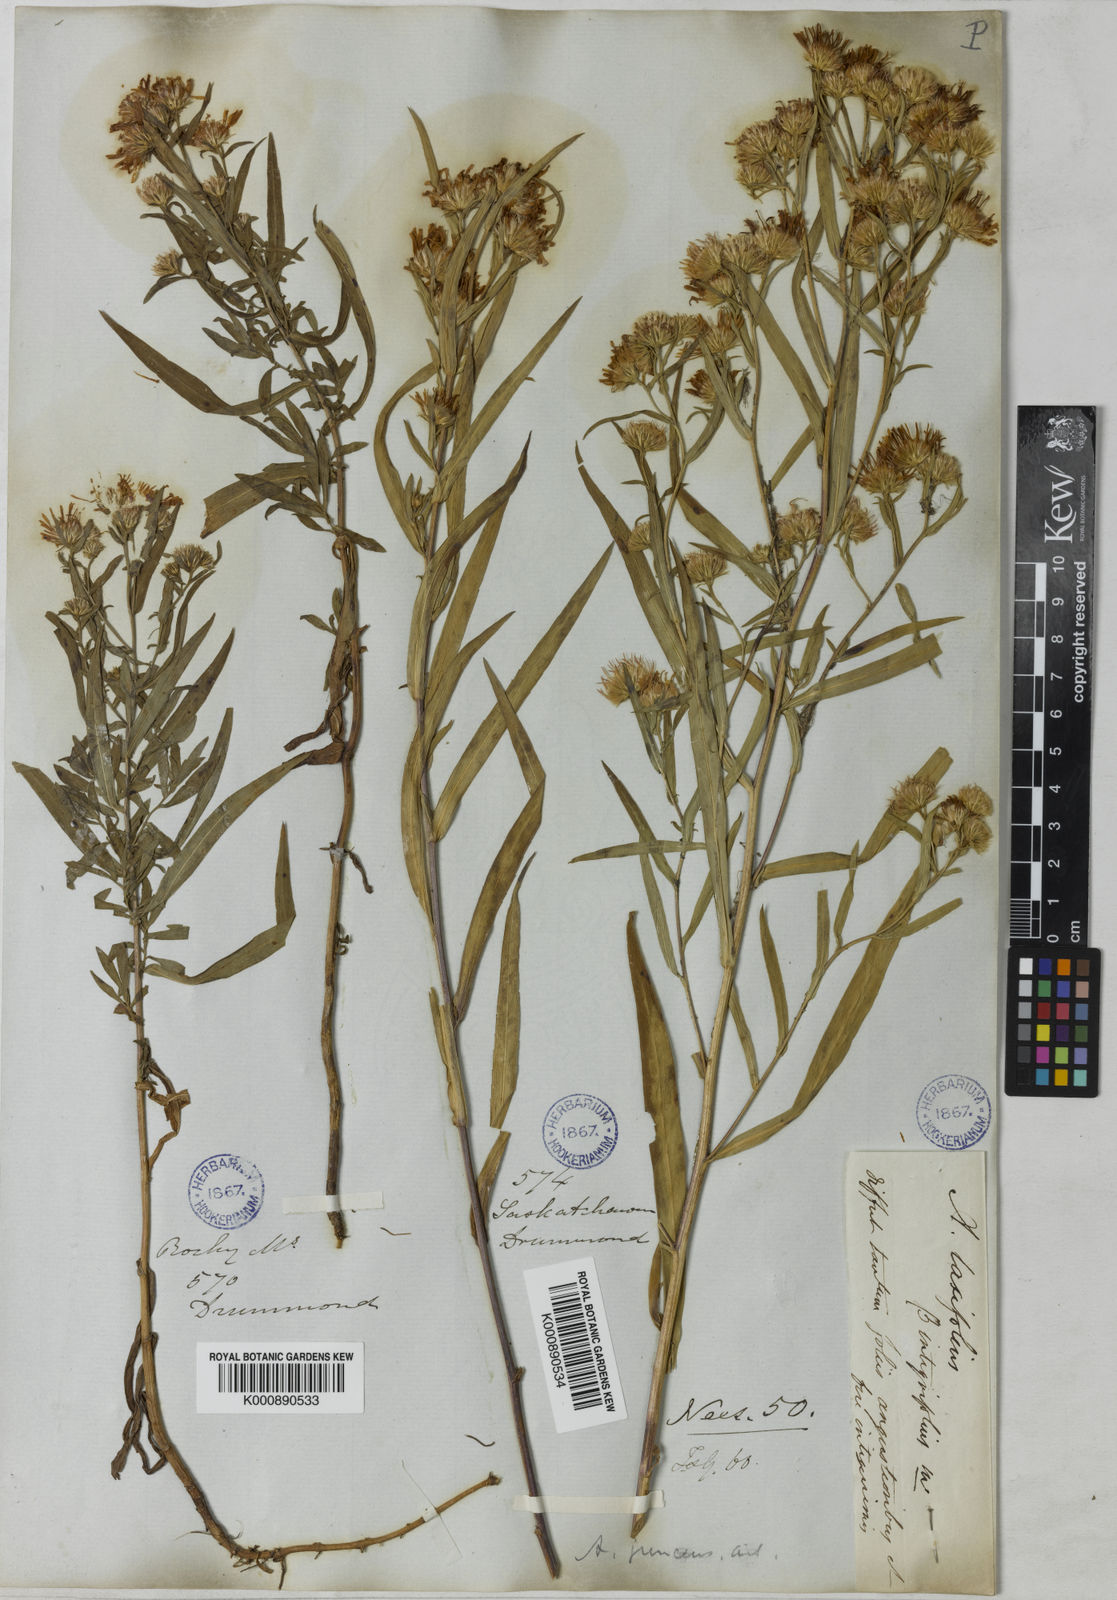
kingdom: Plantae
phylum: Tracheophyta
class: Magnoliopsida
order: Asterales
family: Asteraceae
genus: Symphyotrichum
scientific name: Symphyotrichum novi-belgii
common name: Michaelmas daisy
